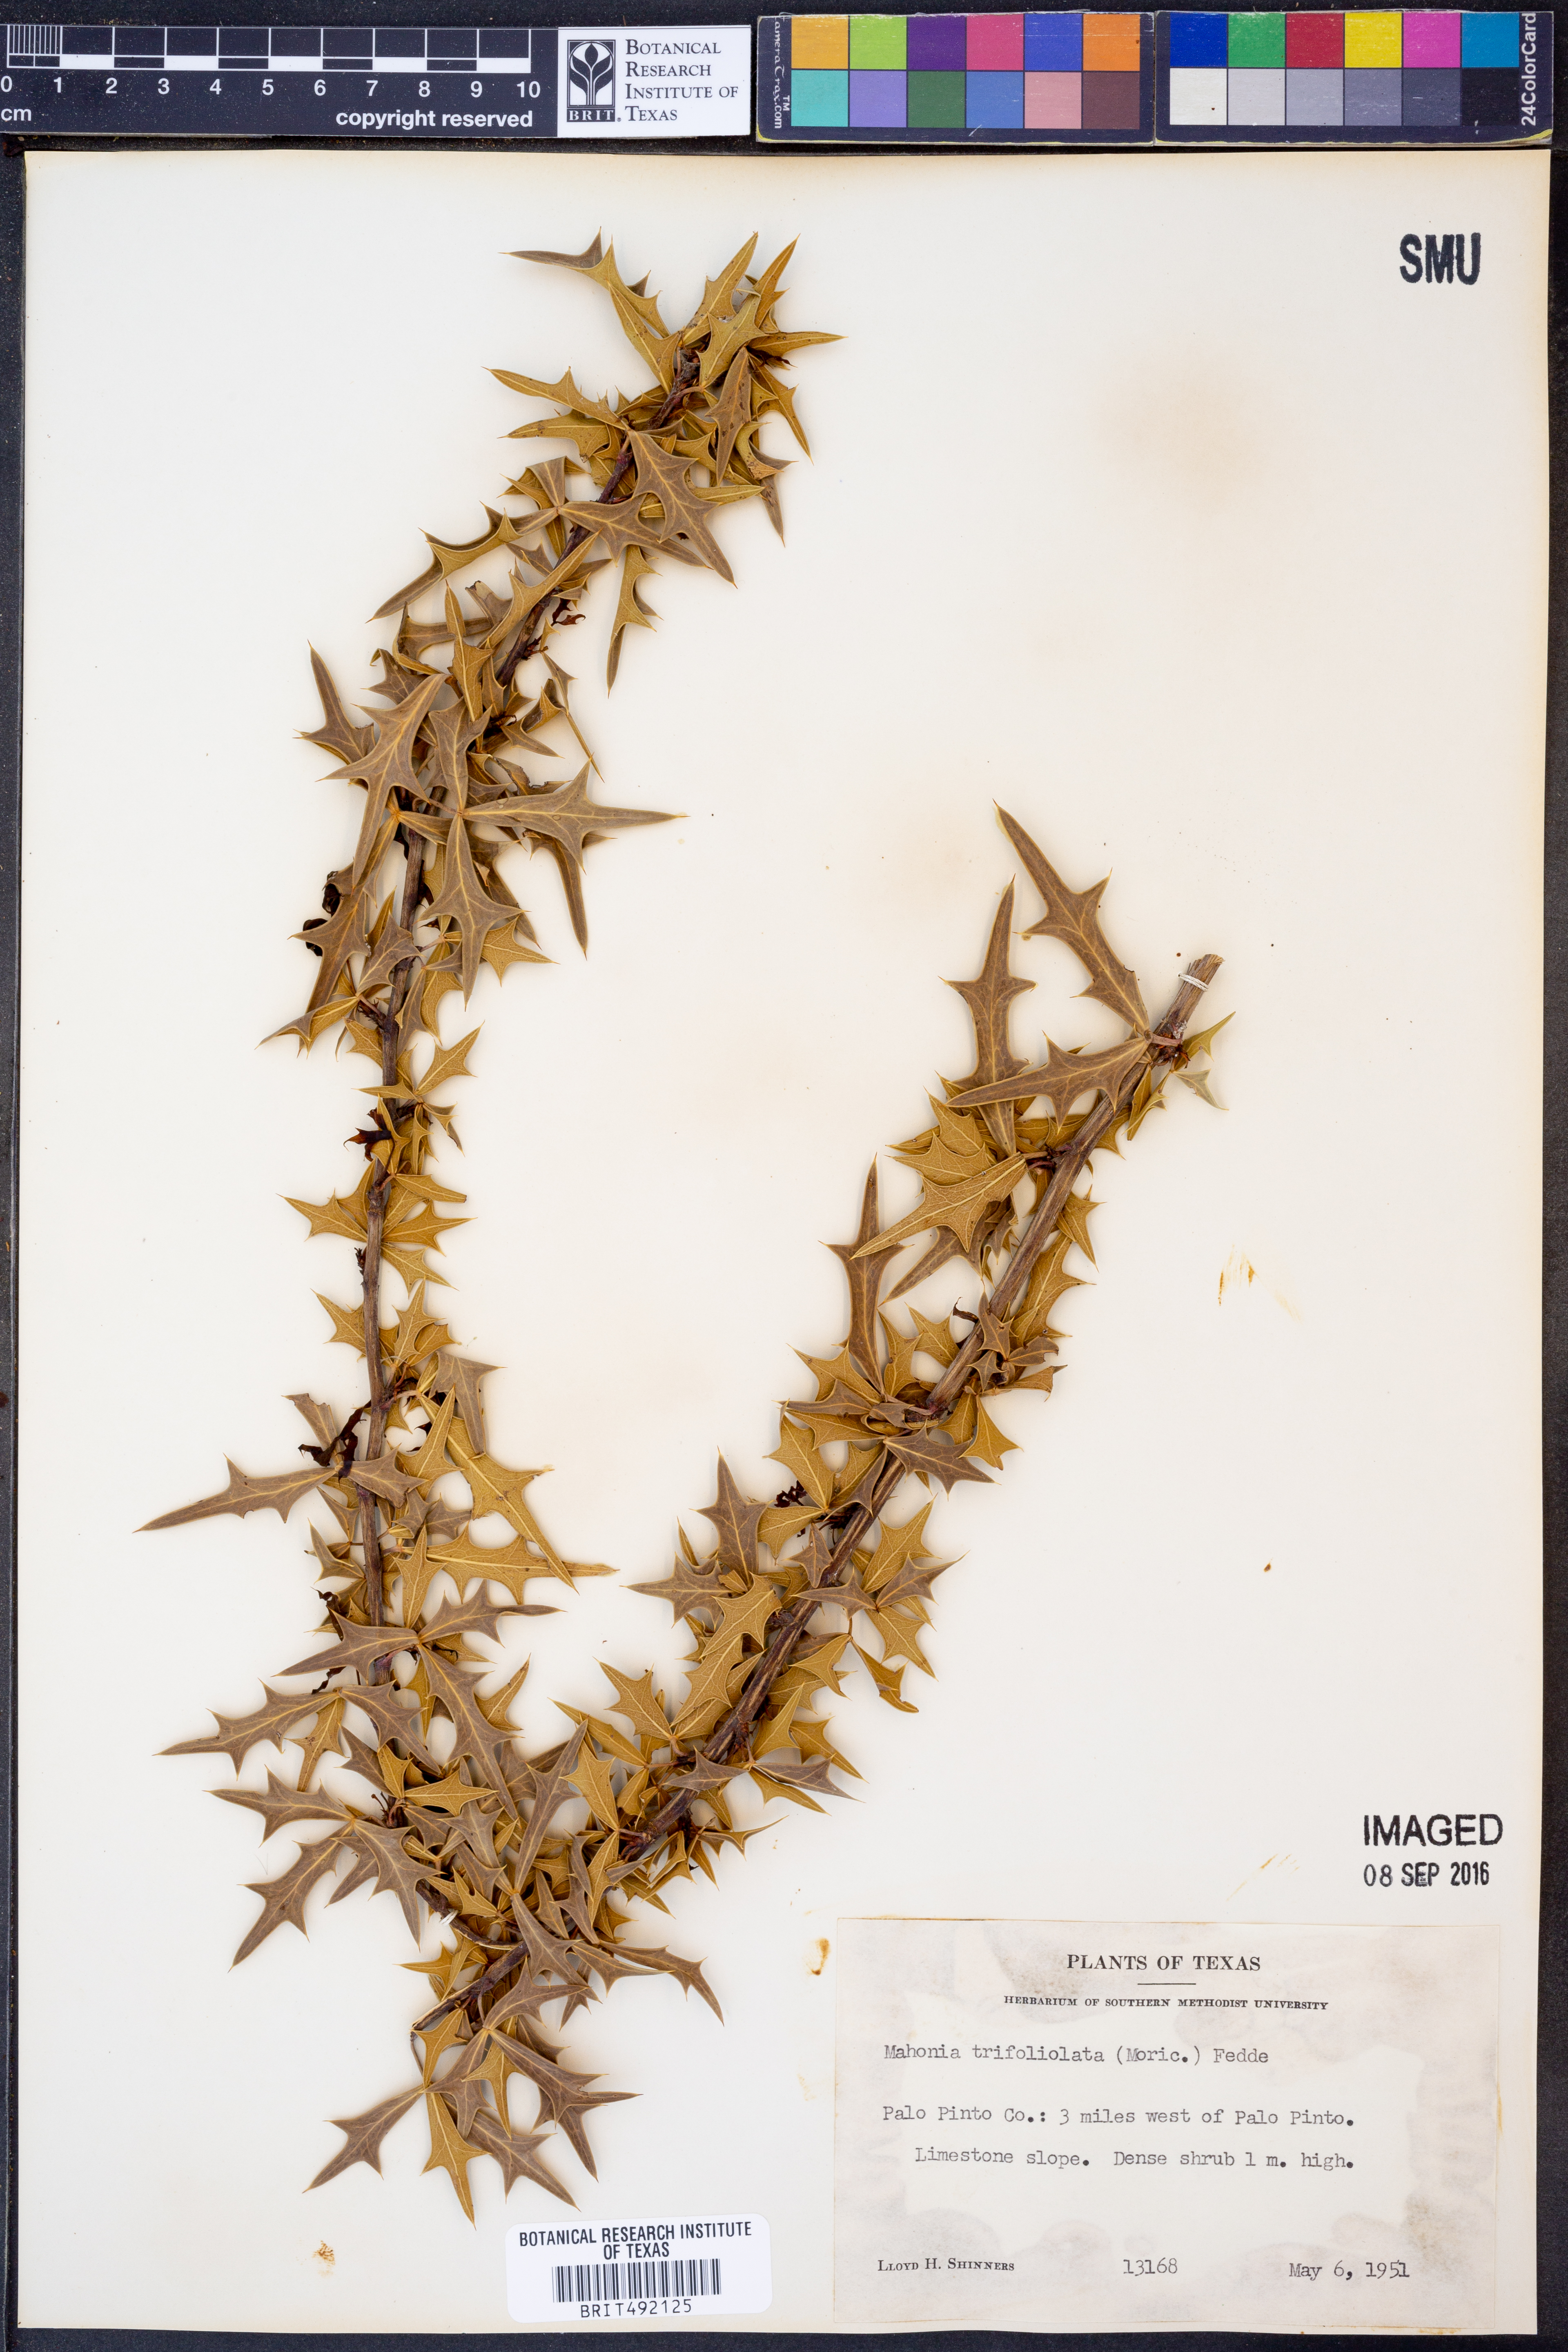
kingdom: Plantae
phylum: Tracheophyta
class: Magnoliopsida
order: Ranunculales
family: Berberidaceae
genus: Alloberberis
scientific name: Alloberberis trifoliolata
